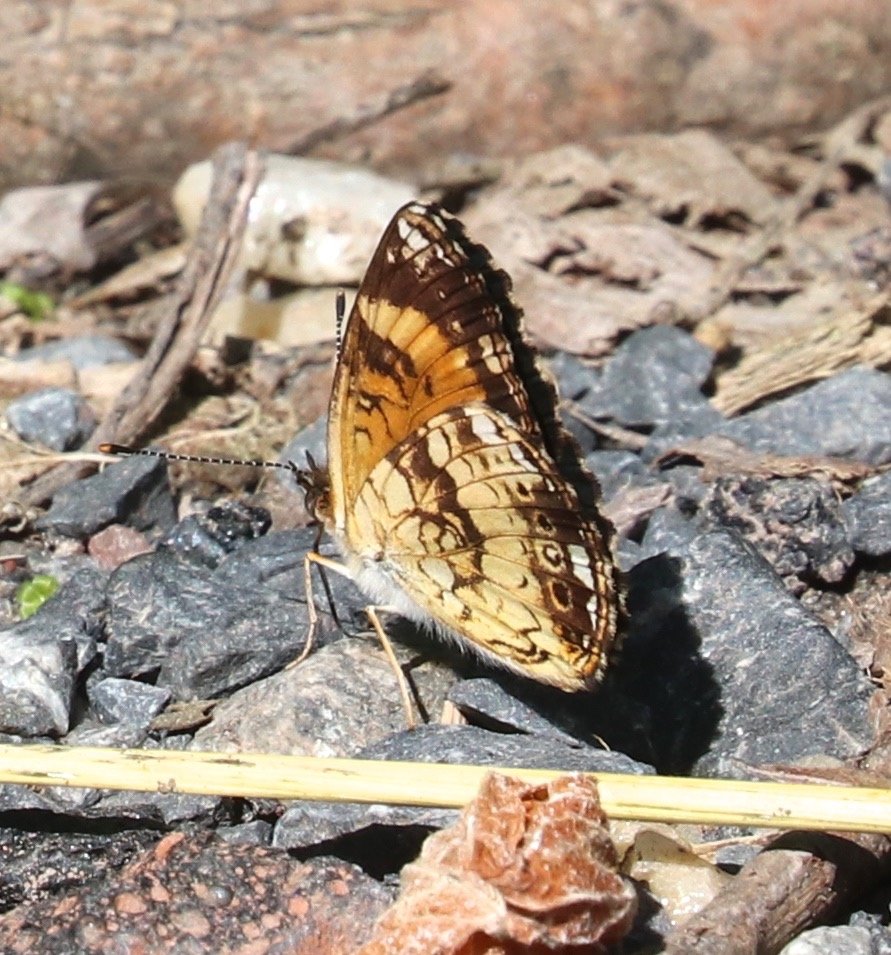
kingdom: Animalia
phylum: Arthropoda
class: Insecta
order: Lepidoptera
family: Nymphalidae
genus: Chlosyne
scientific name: Chlosyne nycteis
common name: Silvery Checkerspot
